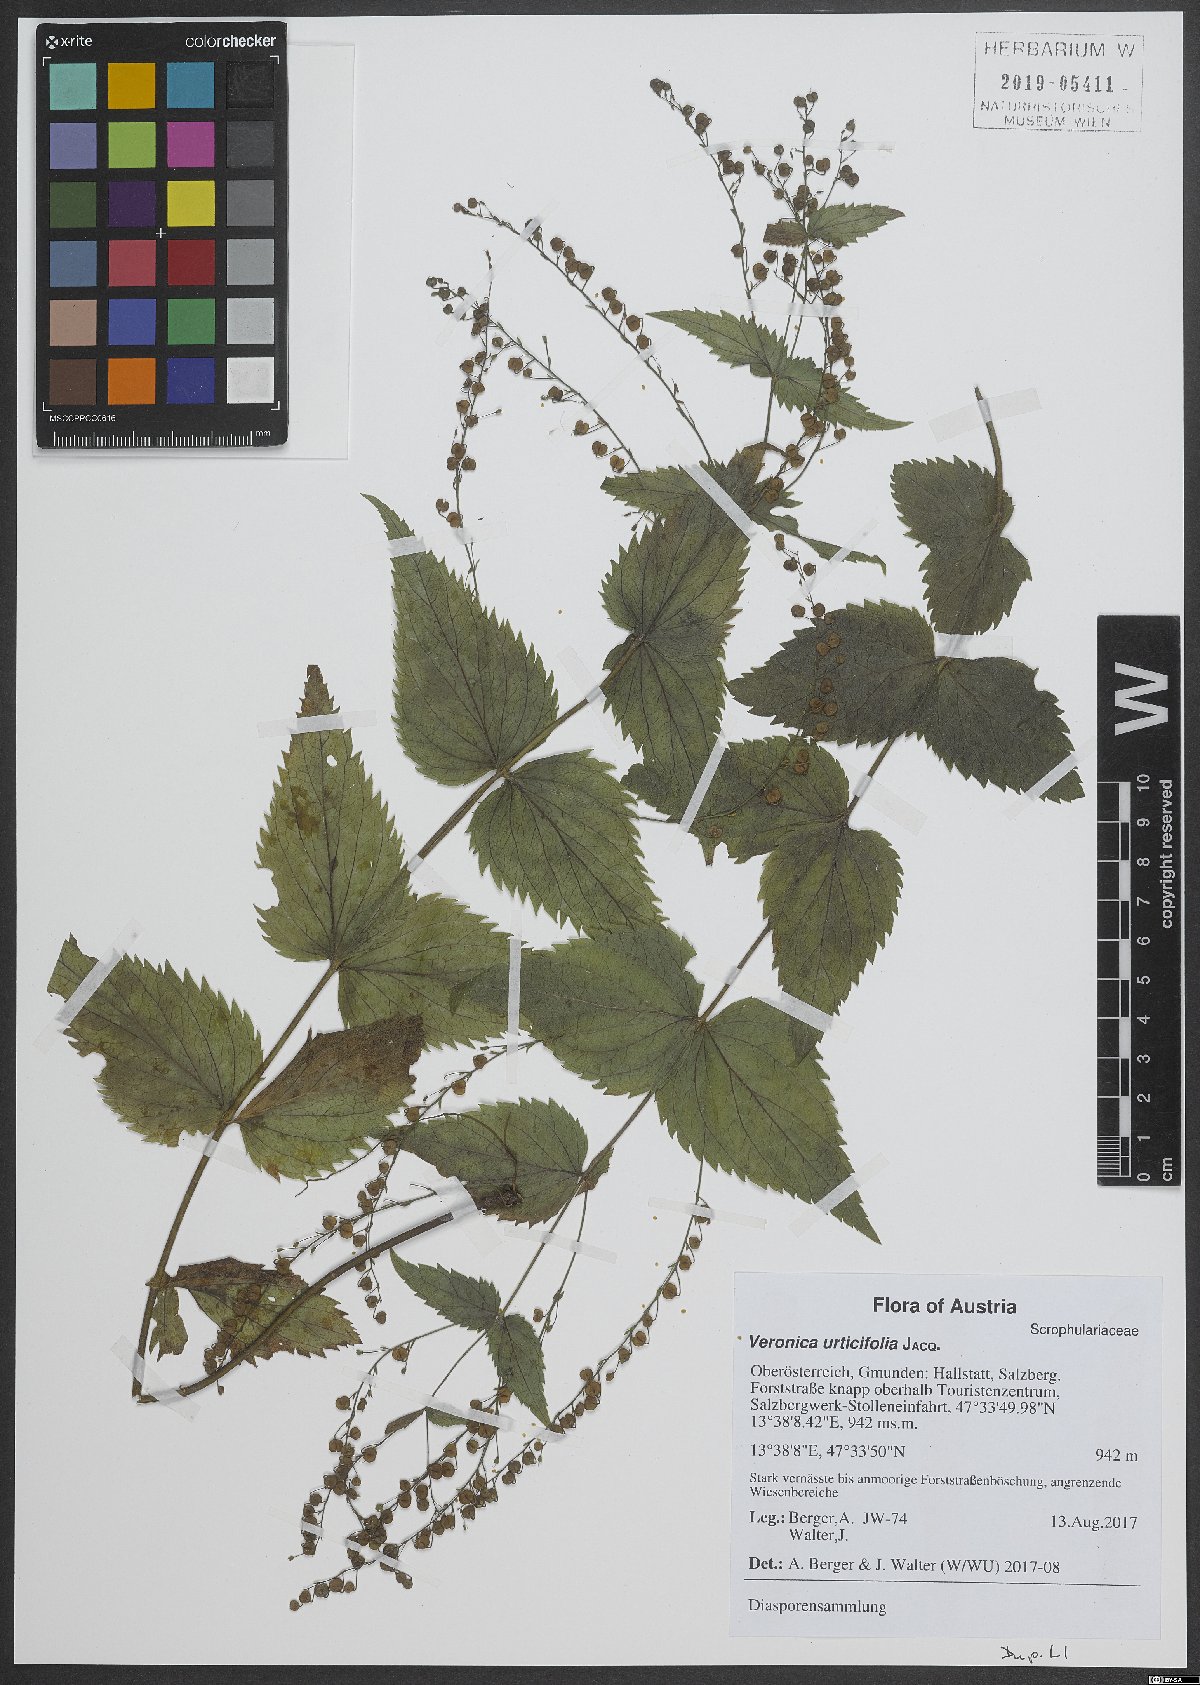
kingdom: Plantae
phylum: Tracheophyta
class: Magnoliopsida
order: Lamiales
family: Plantaginaceae
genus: Veronica
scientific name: Veronica urticifolia
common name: Nettle-leaf speedwell
